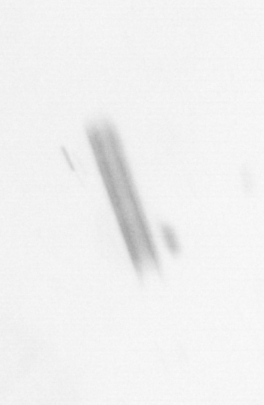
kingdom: Chromista
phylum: Ochrophyta
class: Bacillariophyceae
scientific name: Bacillariophyceae
